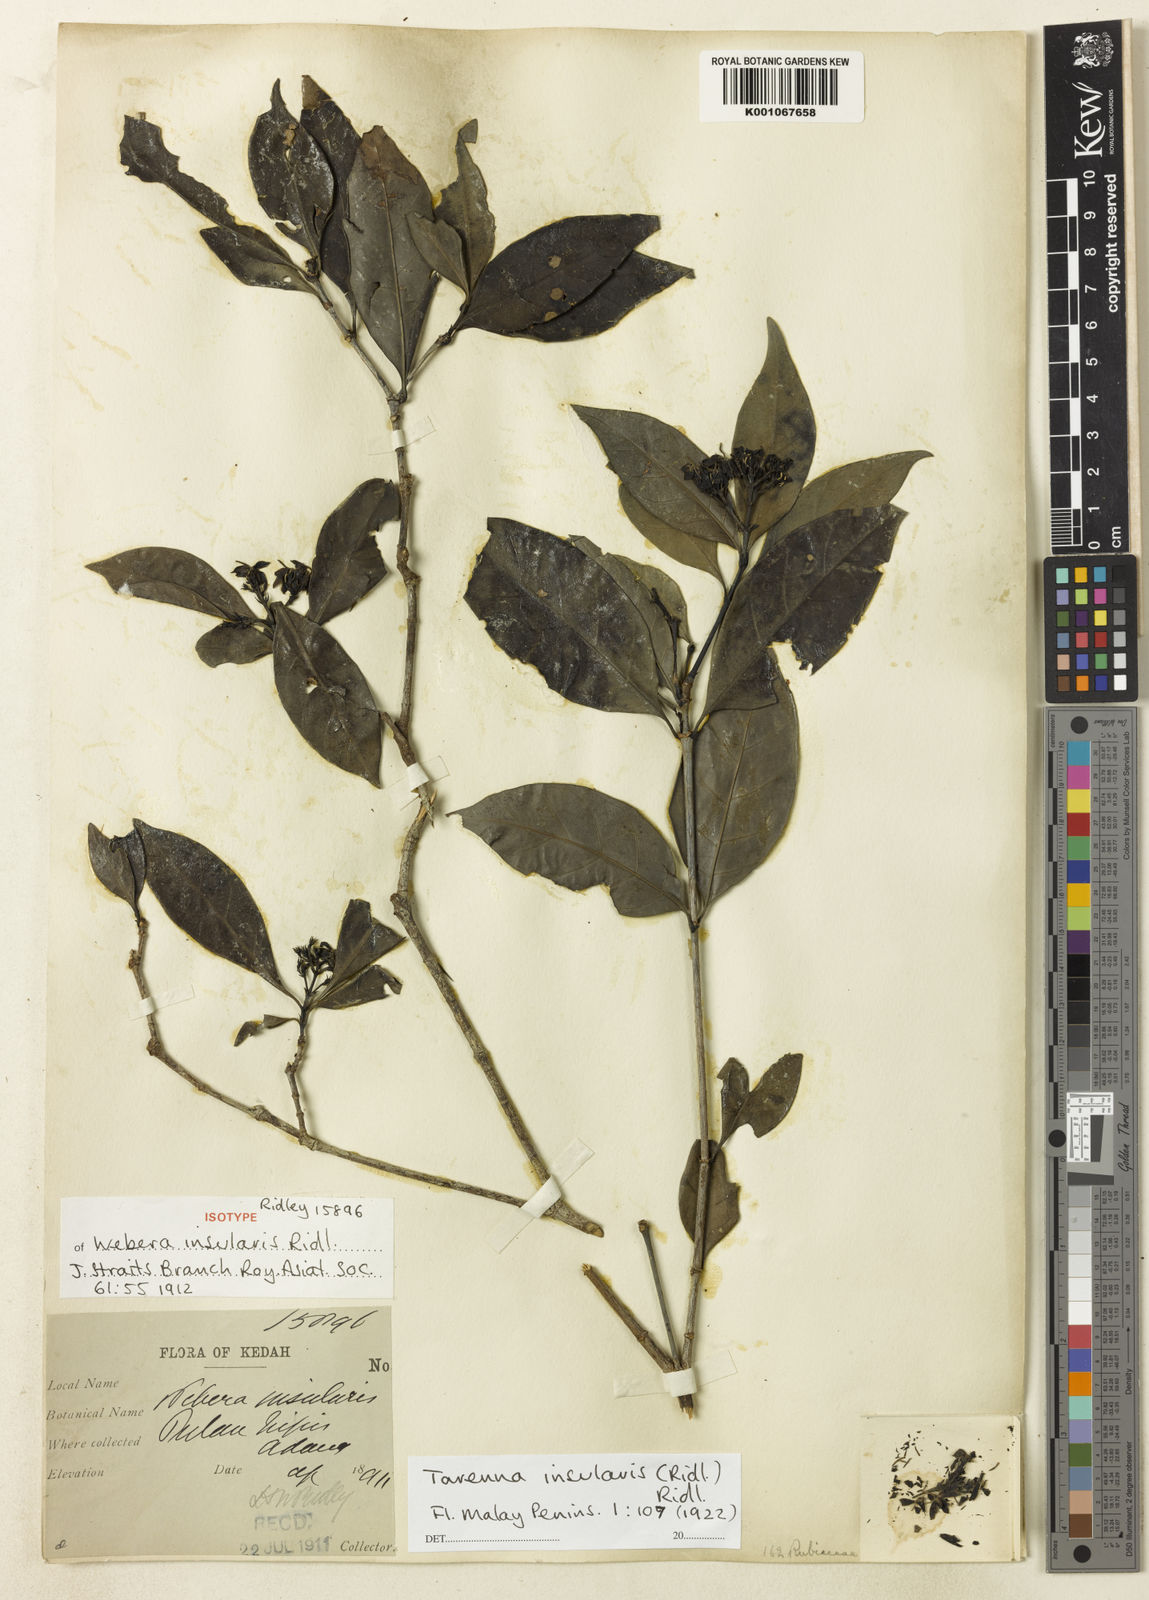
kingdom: Plantae
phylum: Tracheophyta
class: Magnoliopsida
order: Gentianales
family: Rubiaceae
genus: Tarenna
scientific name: Tarenna insularis
